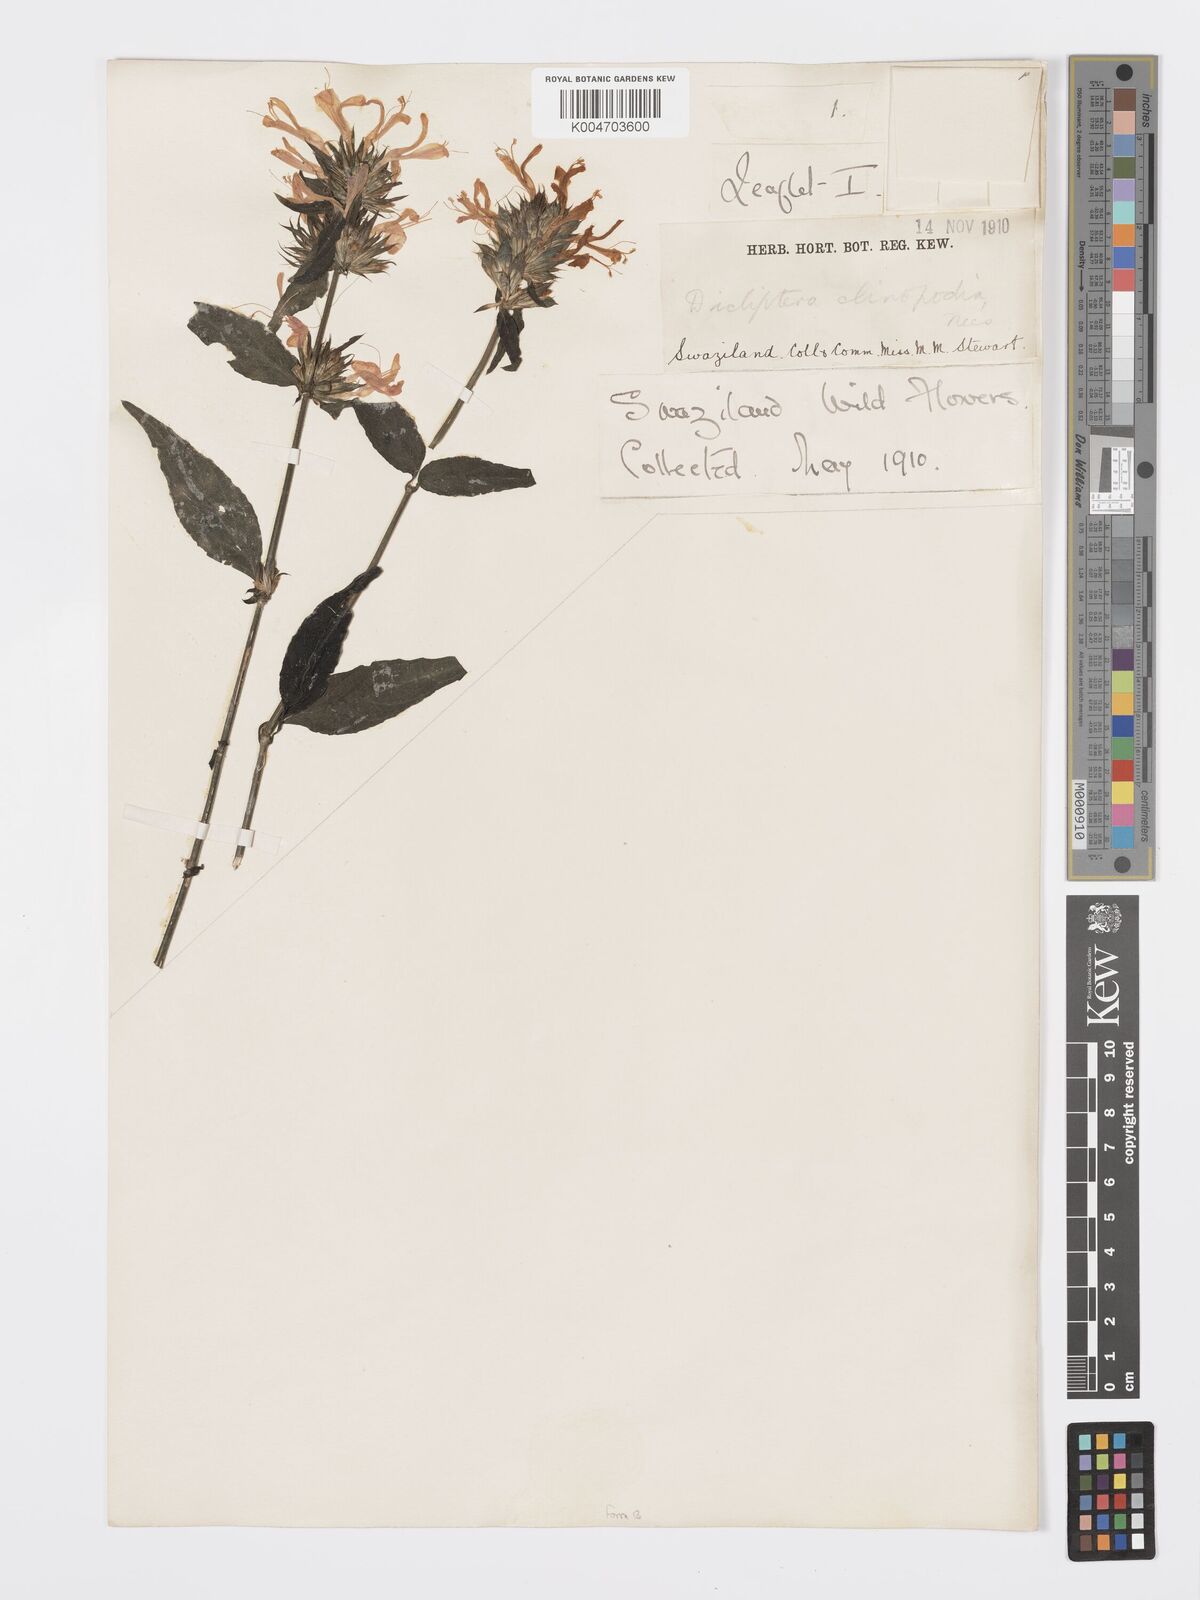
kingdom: Plantae
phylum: Tracheophyta
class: Magnoliopsida
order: Lamiales
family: Acanthaceae
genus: Dicliptera
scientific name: Dicliptera clinopodia
